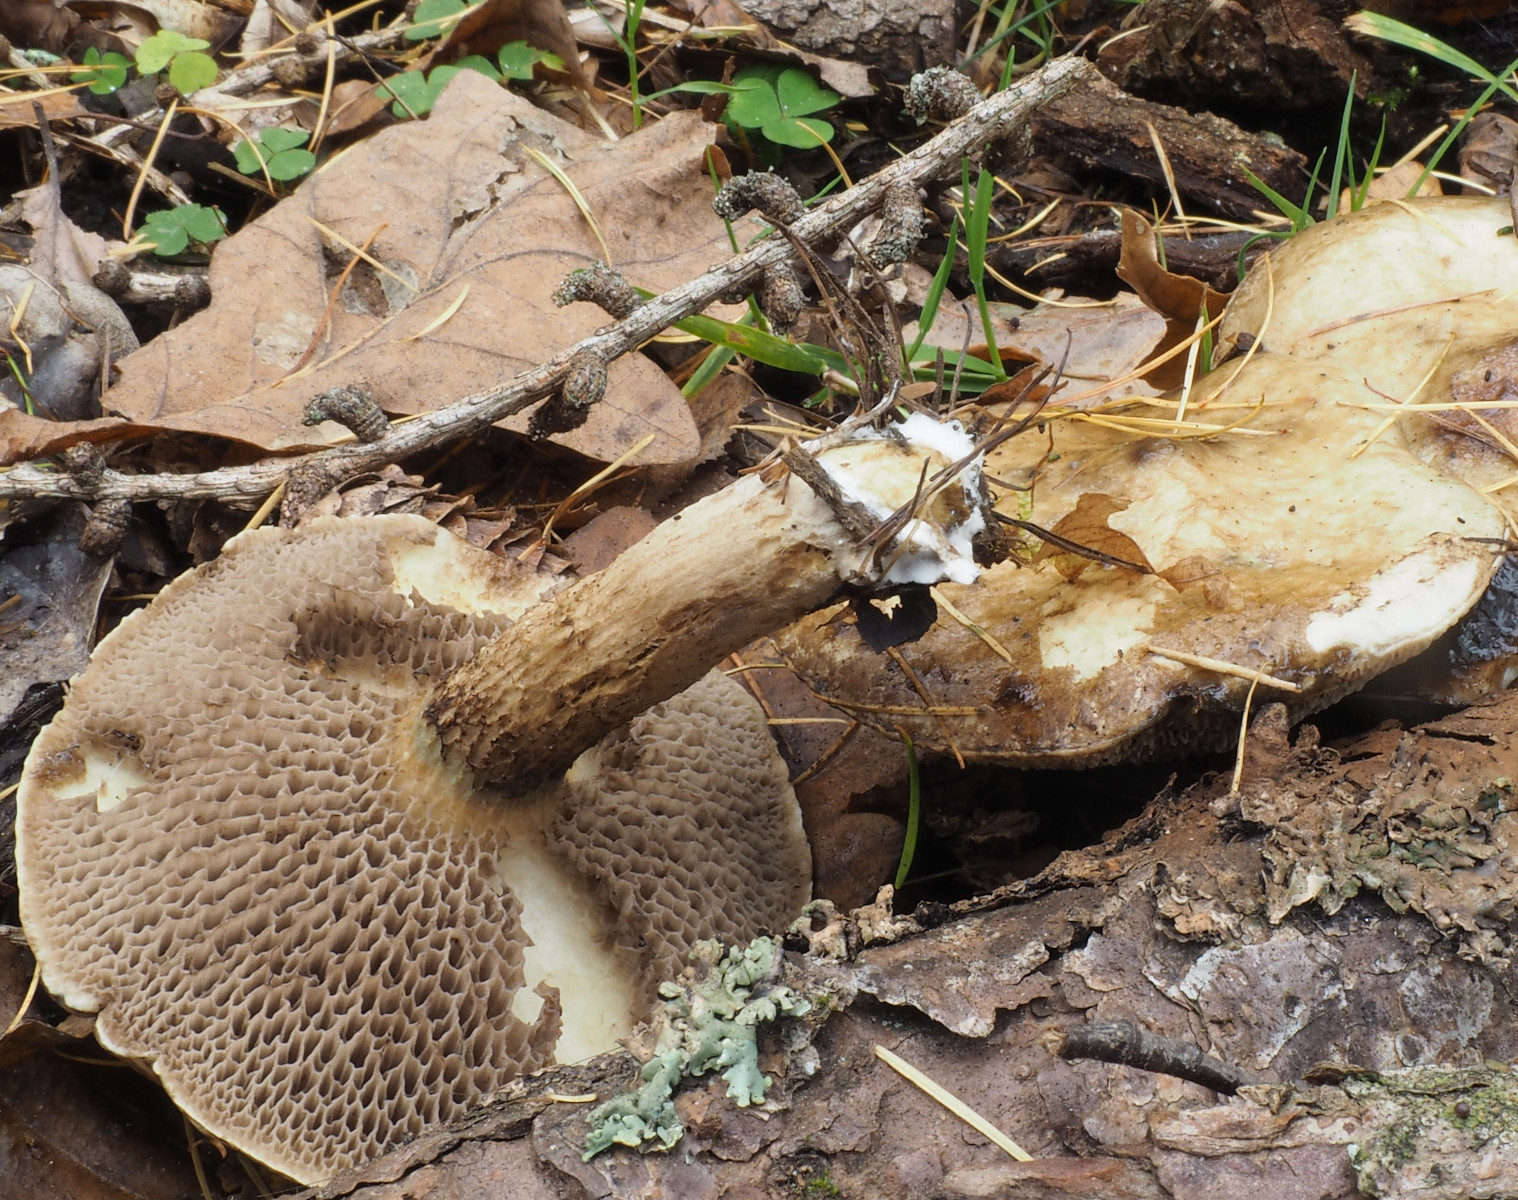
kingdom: Fungi
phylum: Basidiomycota
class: Agaricomycetes
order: Boletales
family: Suillaceae
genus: Suillus
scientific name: Suillus viscidus
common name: olivengrå slimrørhat
